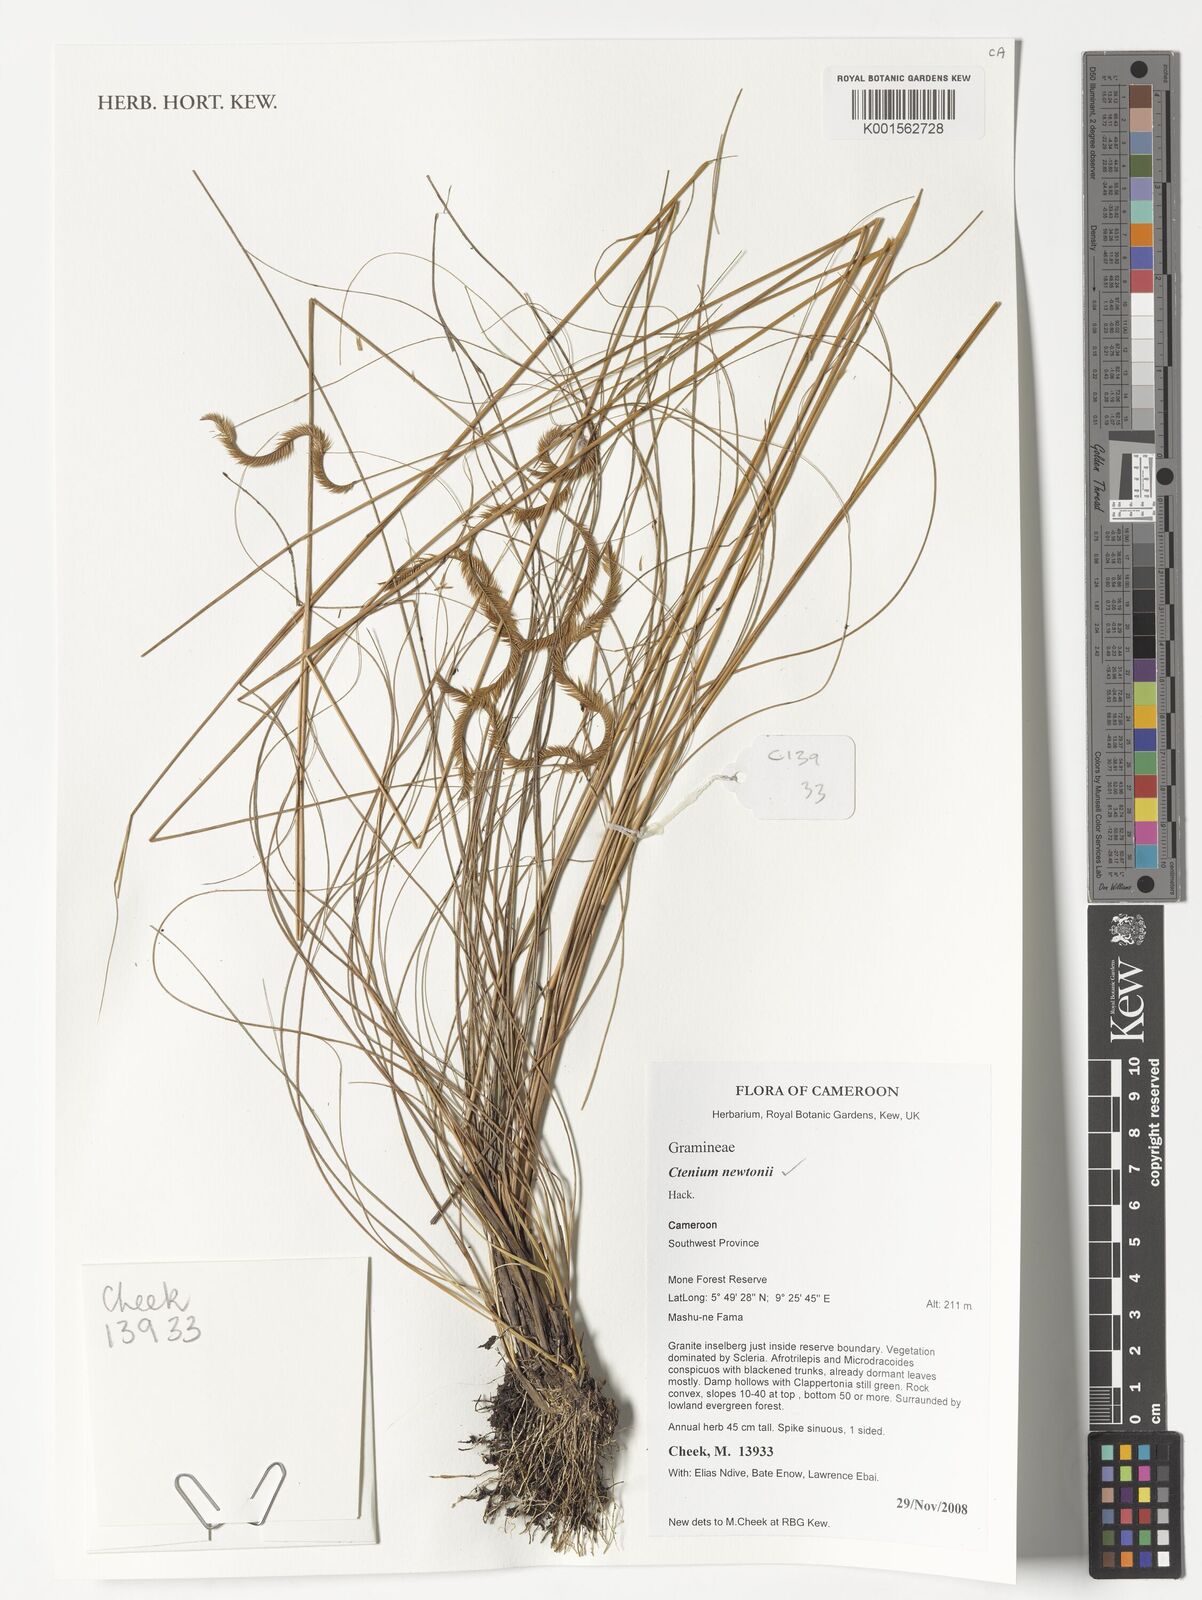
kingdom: Plantae
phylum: Tracheophyta
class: Liliopsida
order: Poales
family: Poaceae
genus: Ctenium
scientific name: Ctenium newtonii
